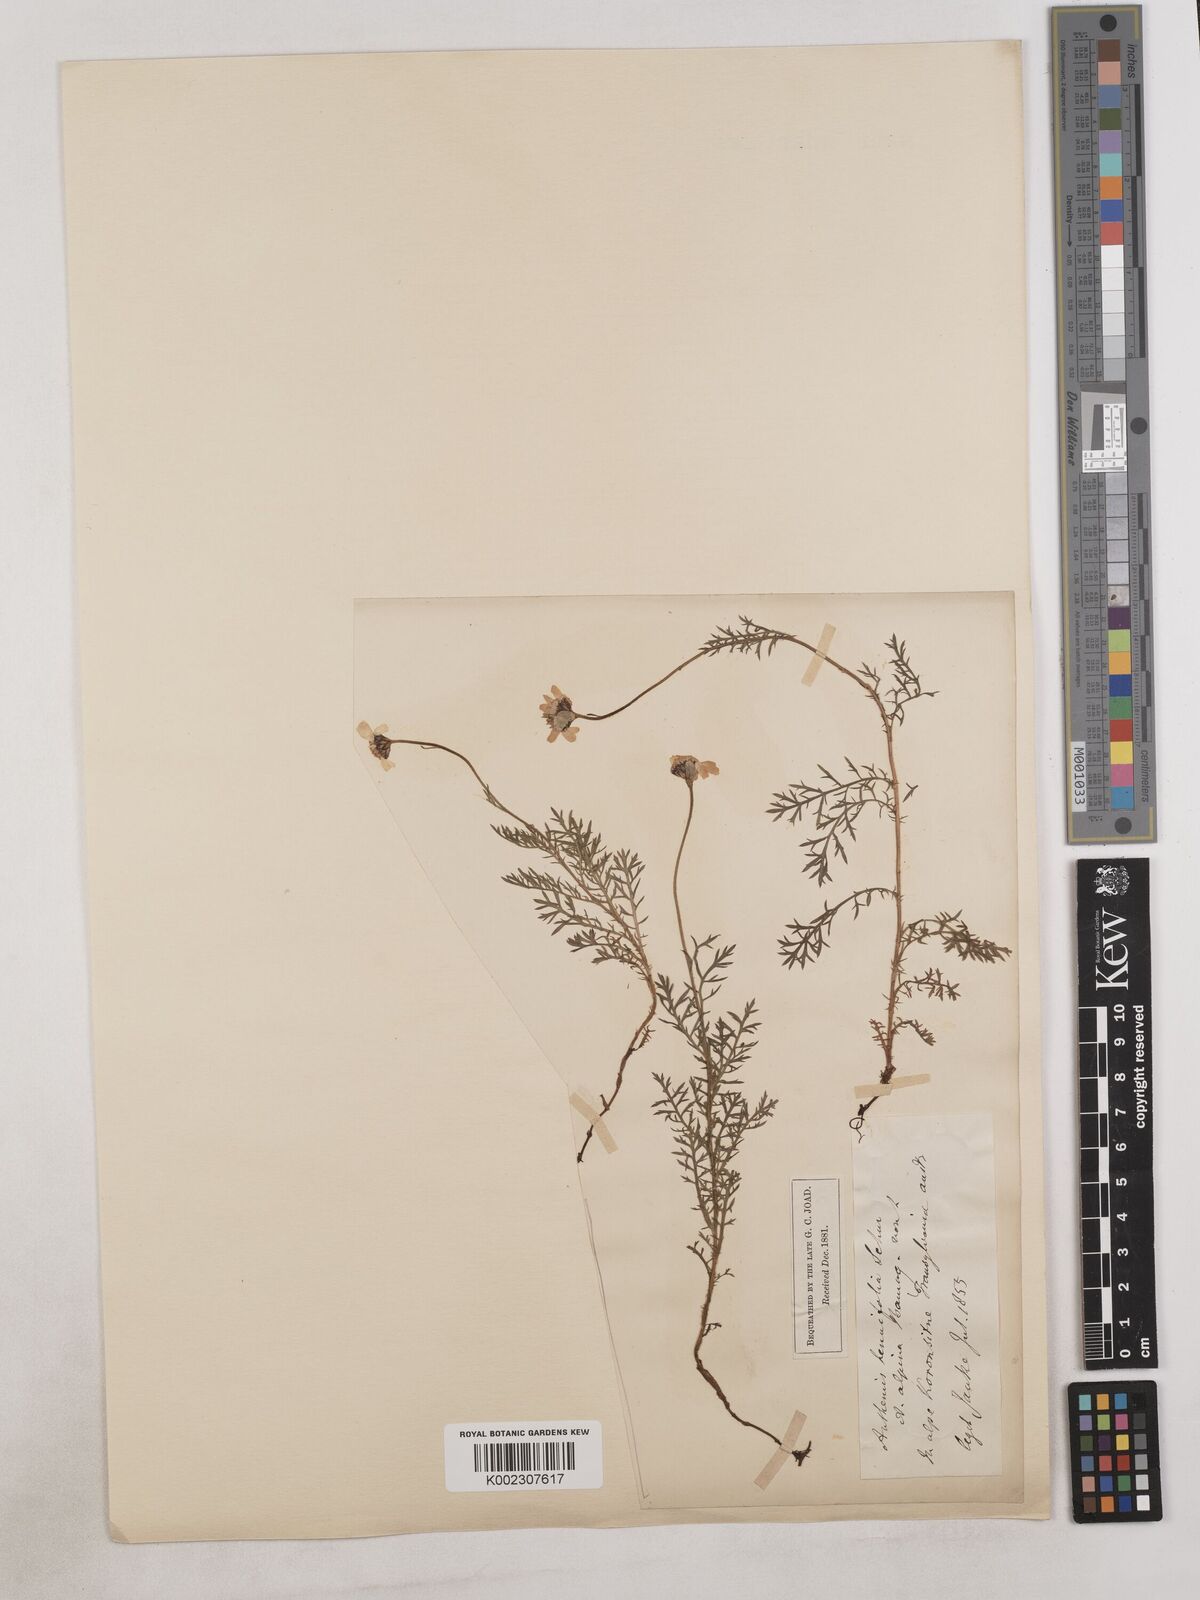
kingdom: Plantae
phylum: Tracheophyta
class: Magnoliopsida
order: Asterales
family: Asteraceae
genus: Achillea
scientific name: Achillea millefolium
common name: Yarrow
